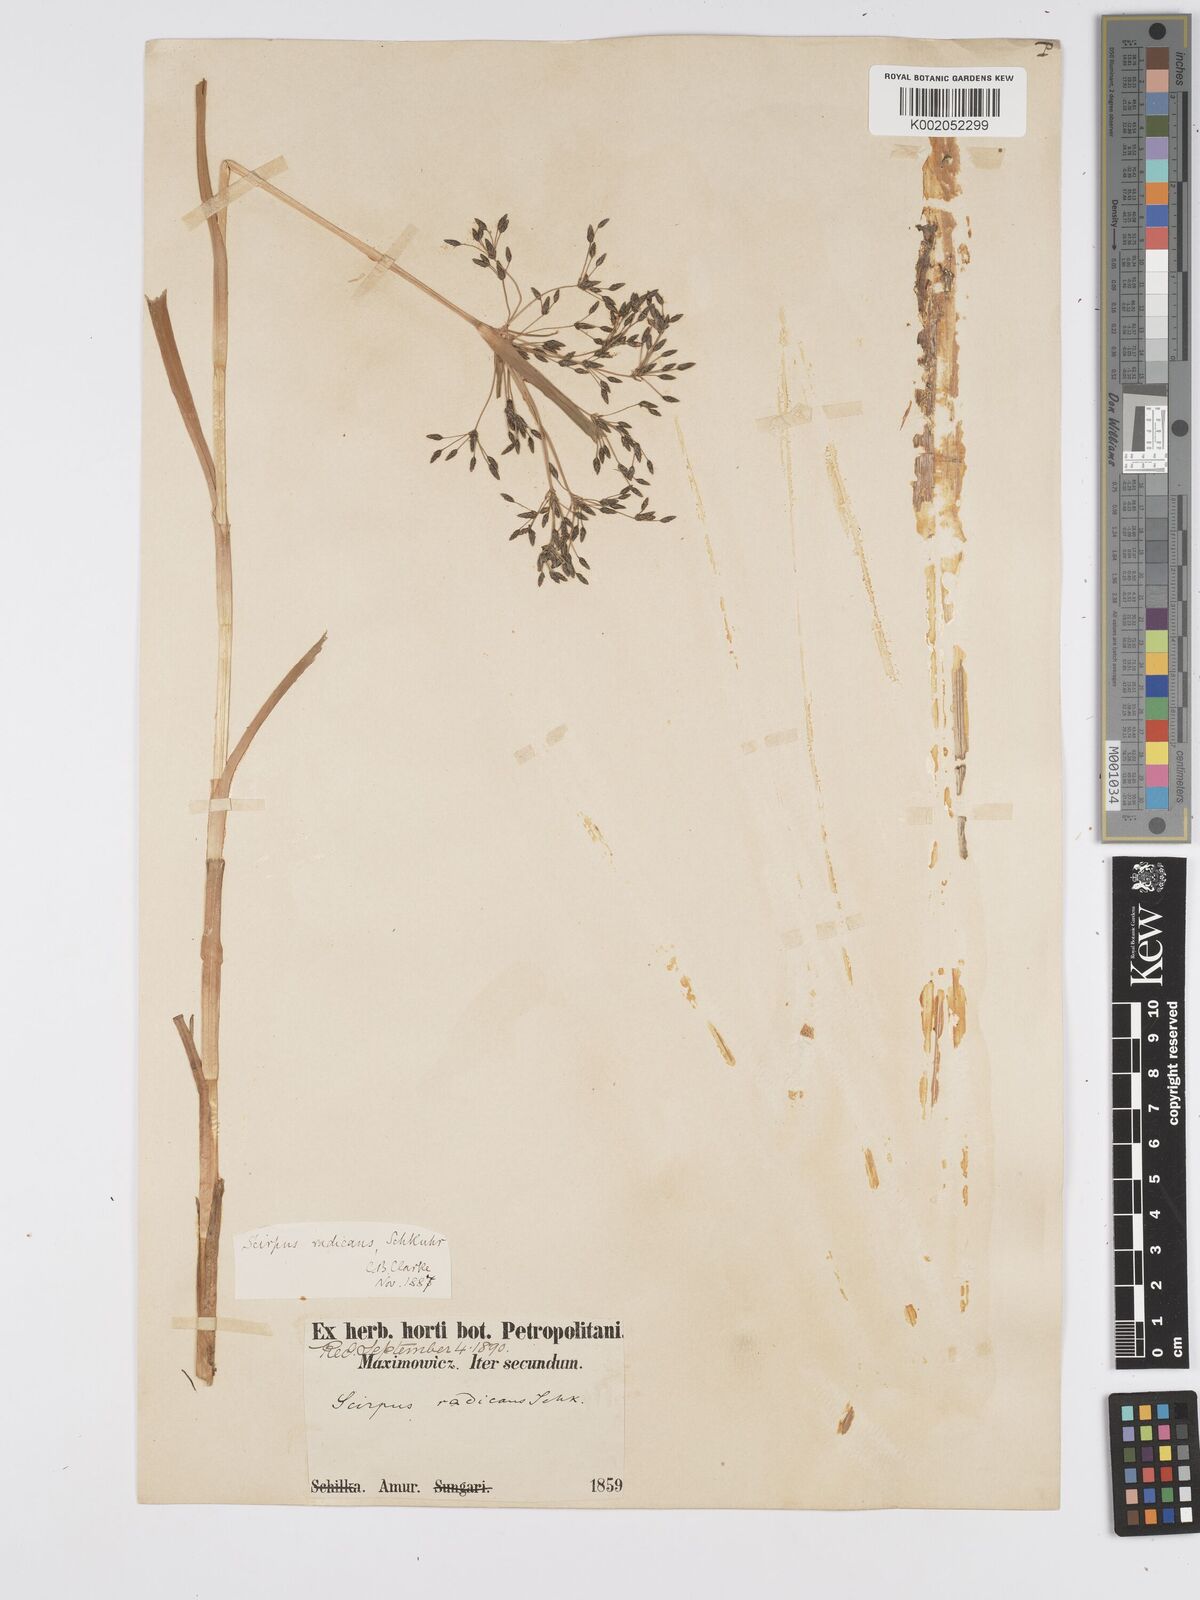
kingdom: Plantae
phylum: Tracheophyta
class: Liliopsida
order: Poales
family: Cyperaceae
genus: Scirpus
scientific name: Scirpus radicans
